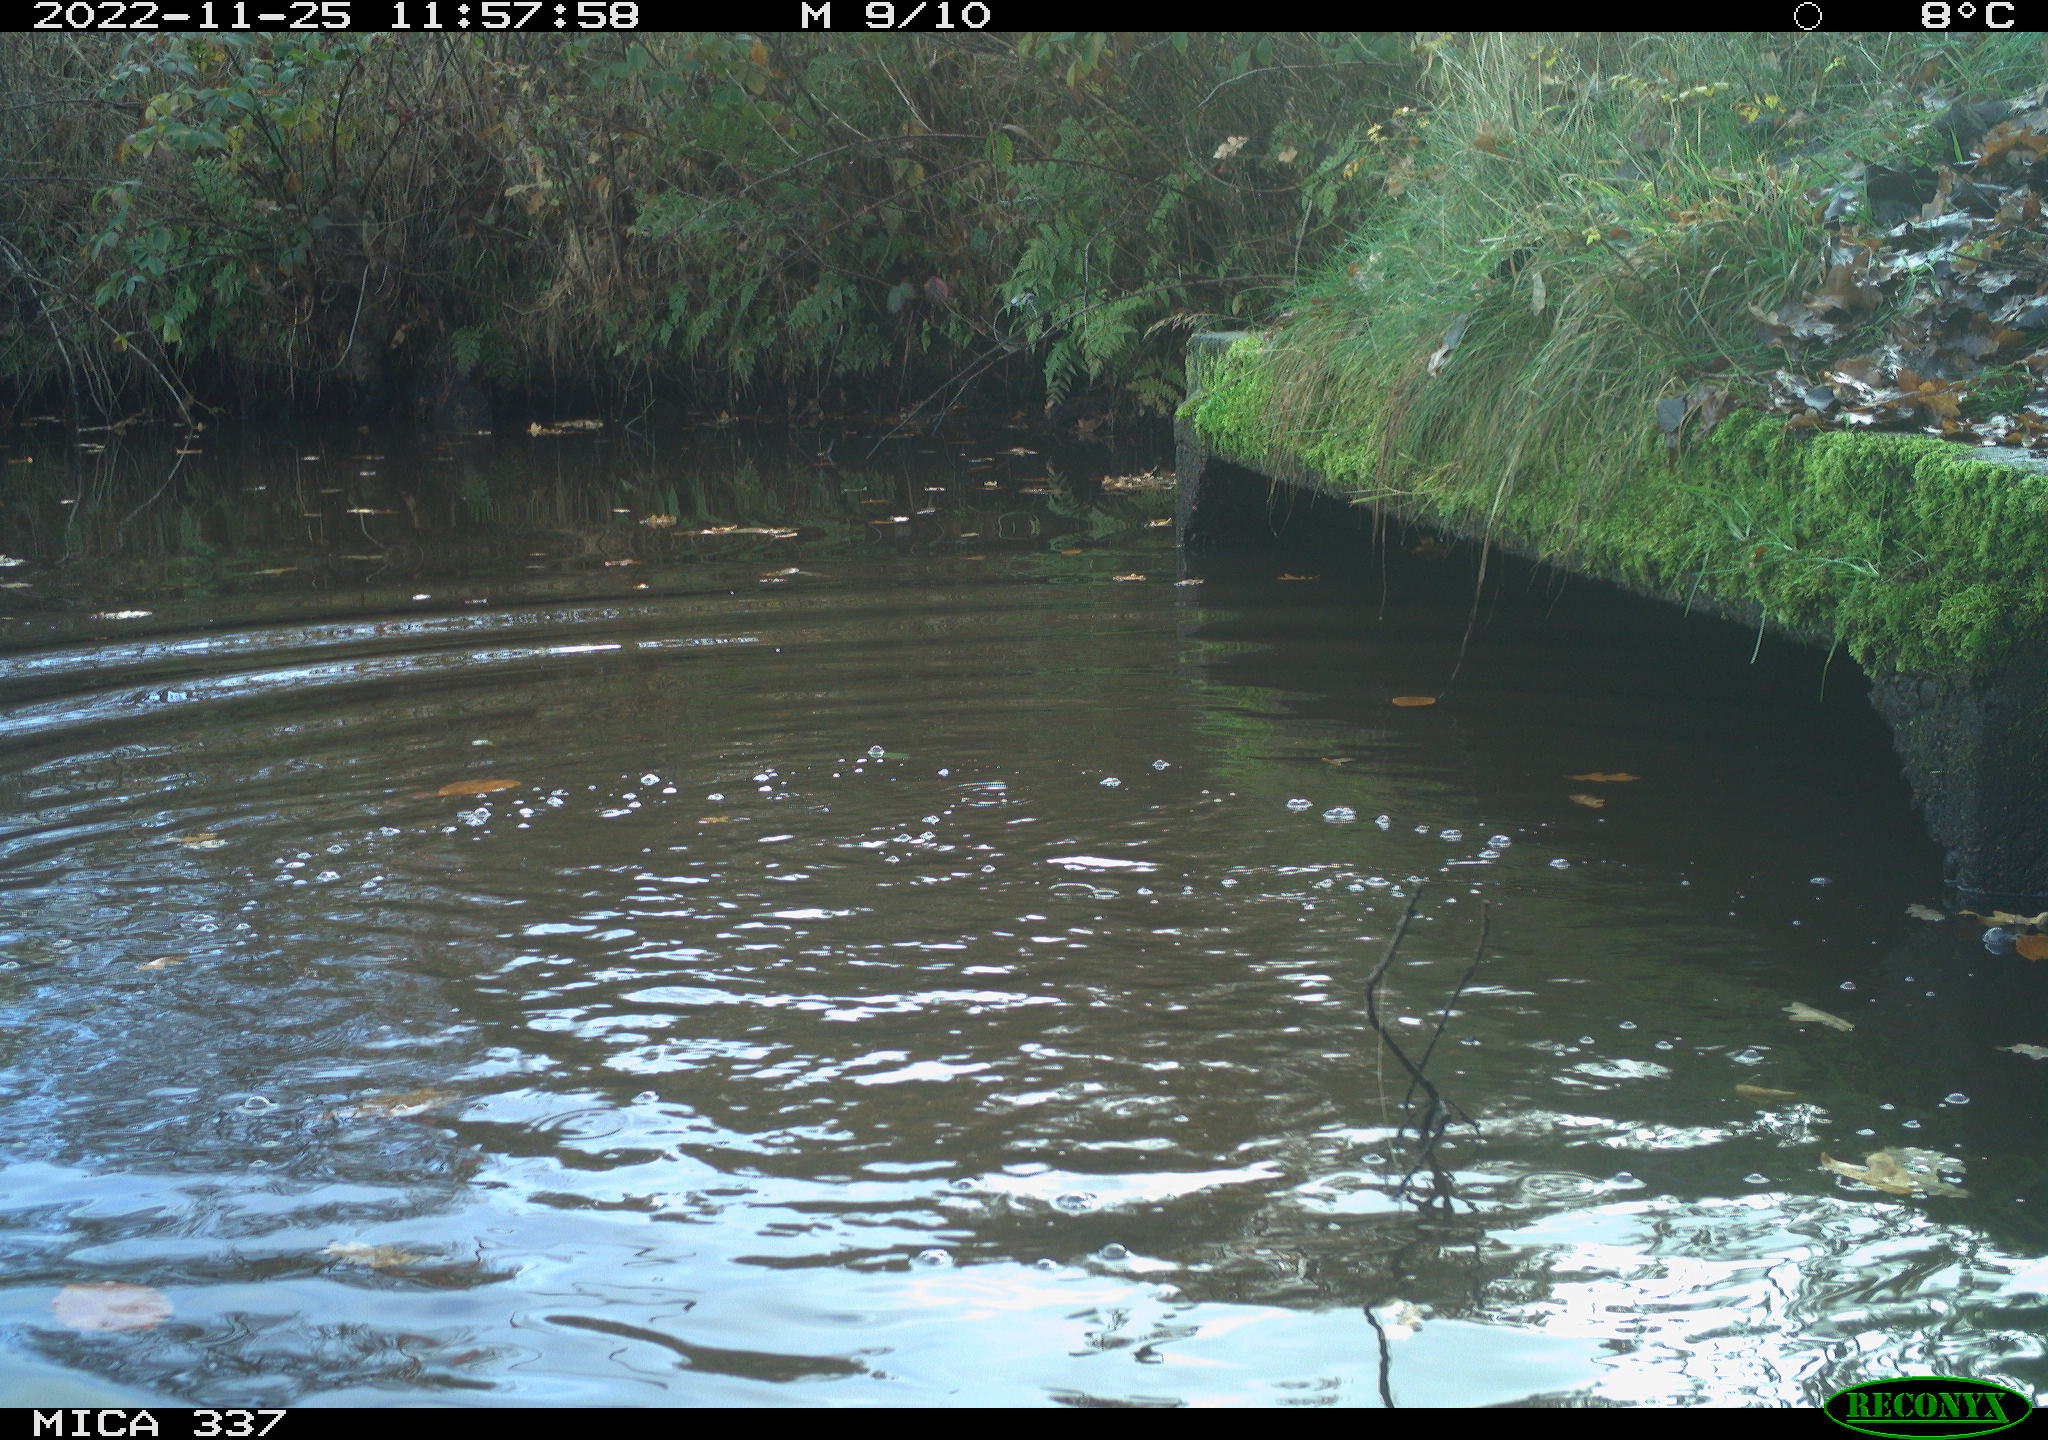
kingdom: Animalia
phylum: Chordata
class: Aves
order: Anseriformes
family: Anatidae
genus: Anas
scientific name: Anas
